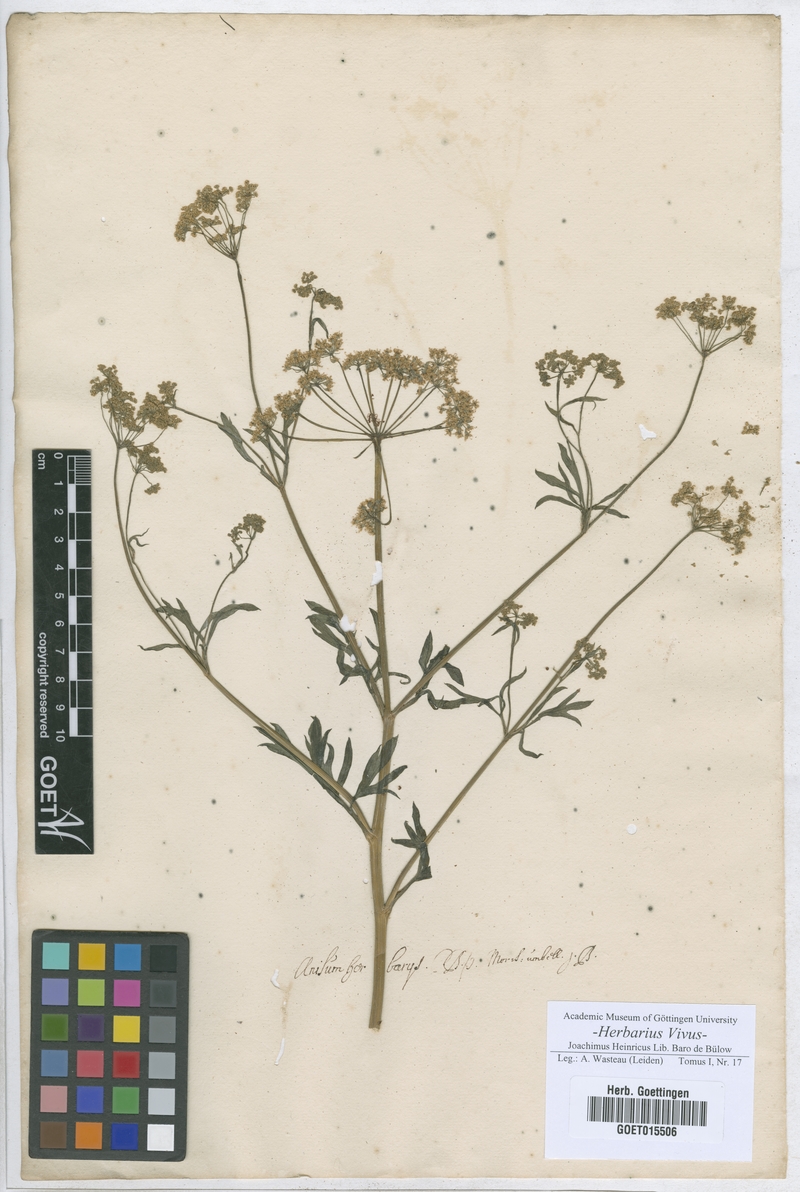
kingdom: Plantae
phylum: Tracheophyta
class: Magnoliopsida
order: Apiales
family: Apiaceae
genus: Pimpinella
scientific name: Pimpinella anisum
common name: Anise burnet saxifrage
